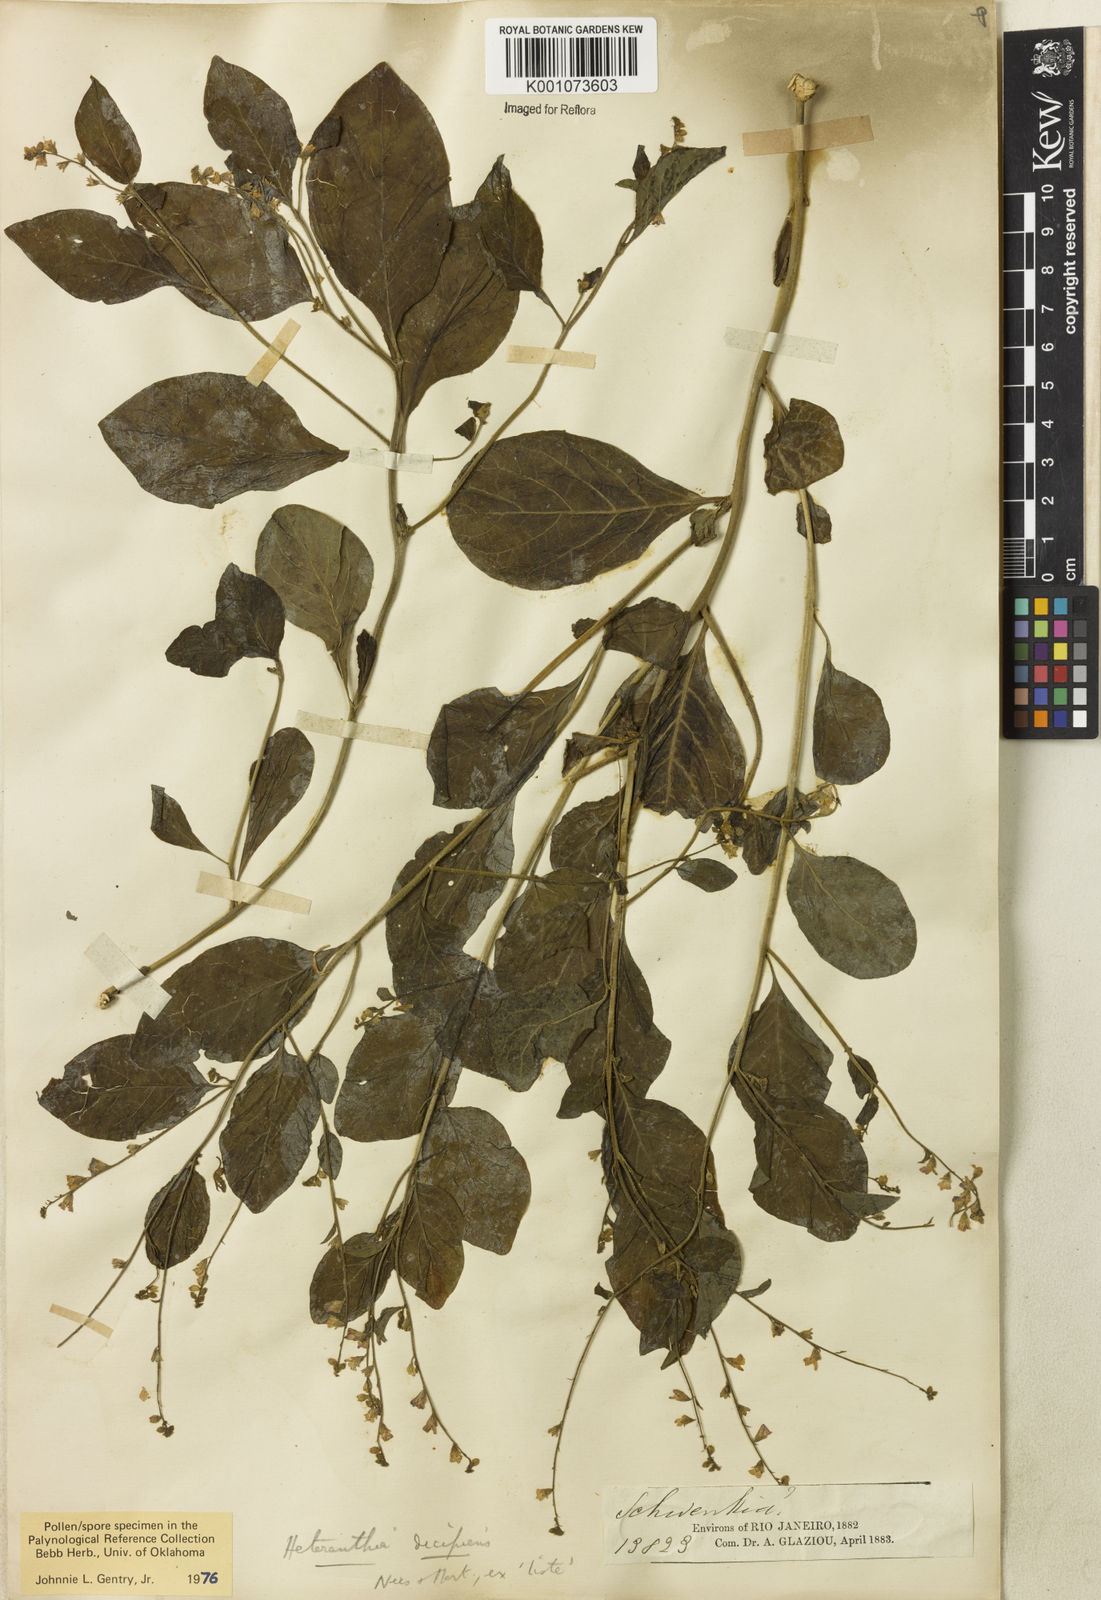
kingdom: Plantae
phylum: Tracheophyta
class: Magnoliopsida
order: Solanales
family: Solanaceae
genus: Heteranthia
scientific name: Heteranthia decipiens
